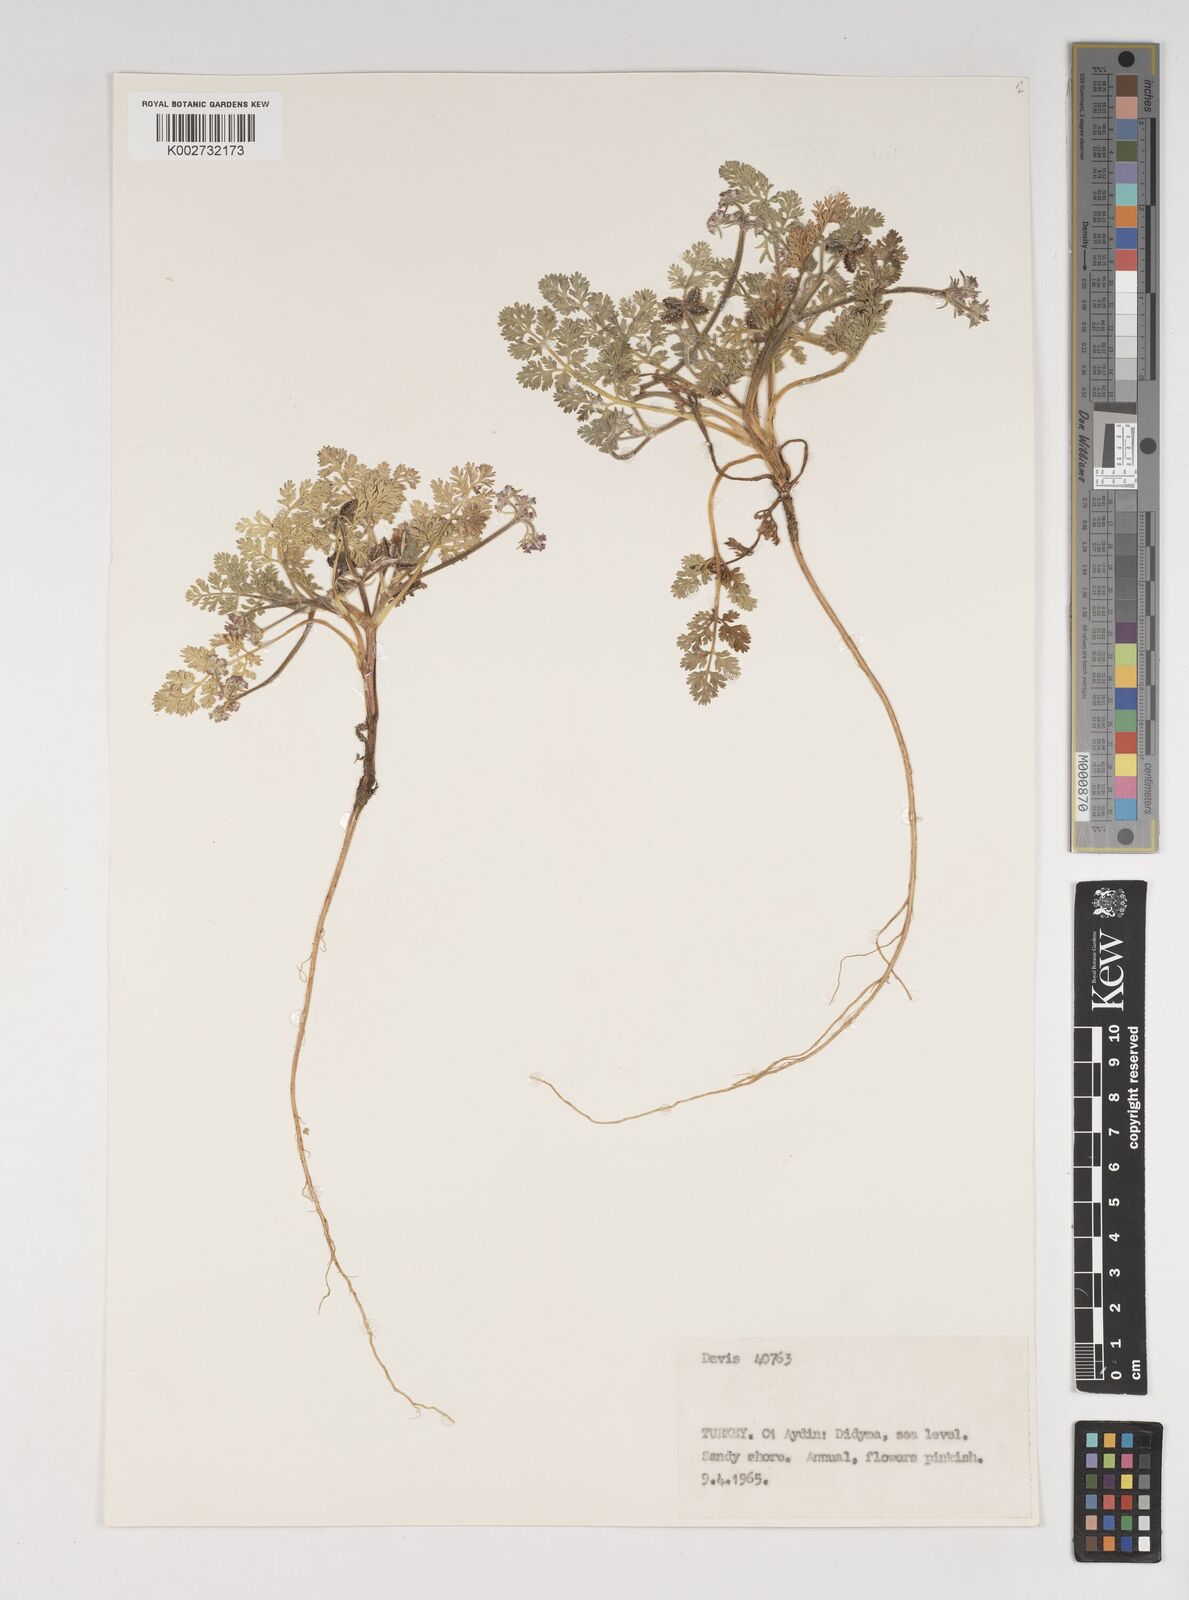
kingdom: Plantae
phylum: Tracheophyta
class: Magnoliopsida
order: Apiales
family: Apiaceae
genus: Daucus
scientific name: Daucus pumilus
